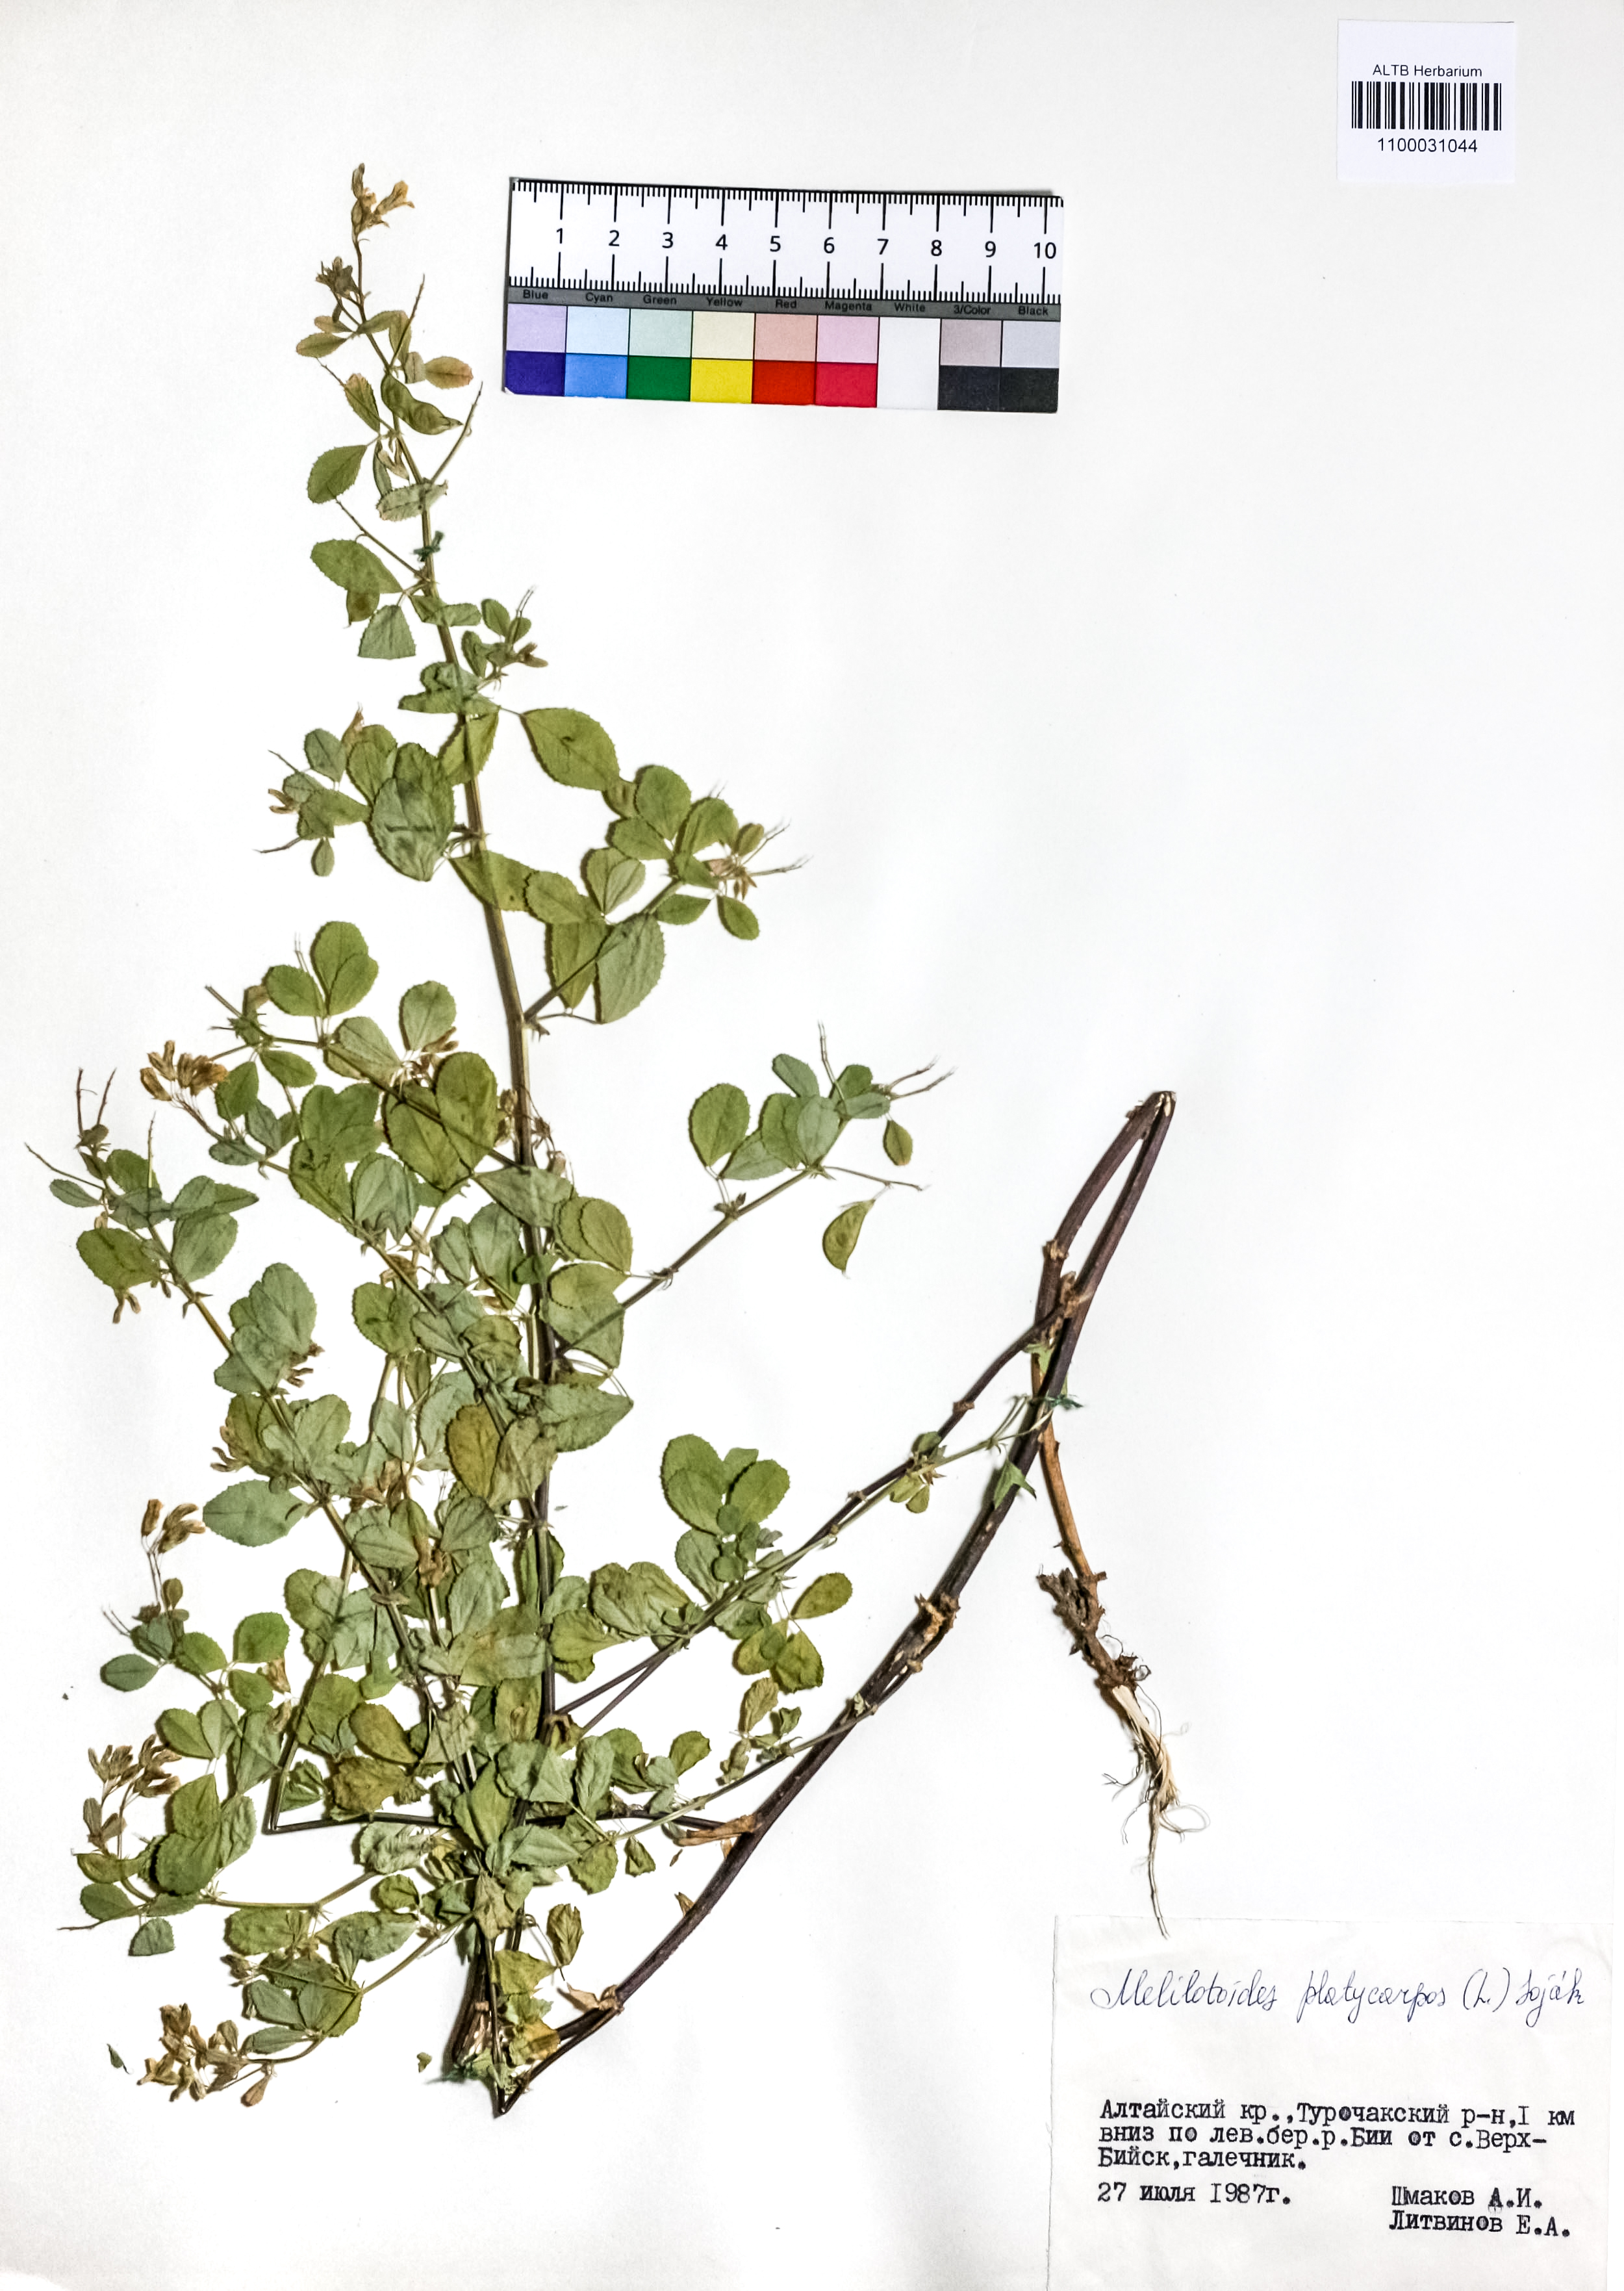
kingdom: Plantae
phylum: Tracheophyta
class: Magnoliopsida
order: Fabales
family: Fabaceae
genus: Medicago
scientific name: Medicago platycarpos
